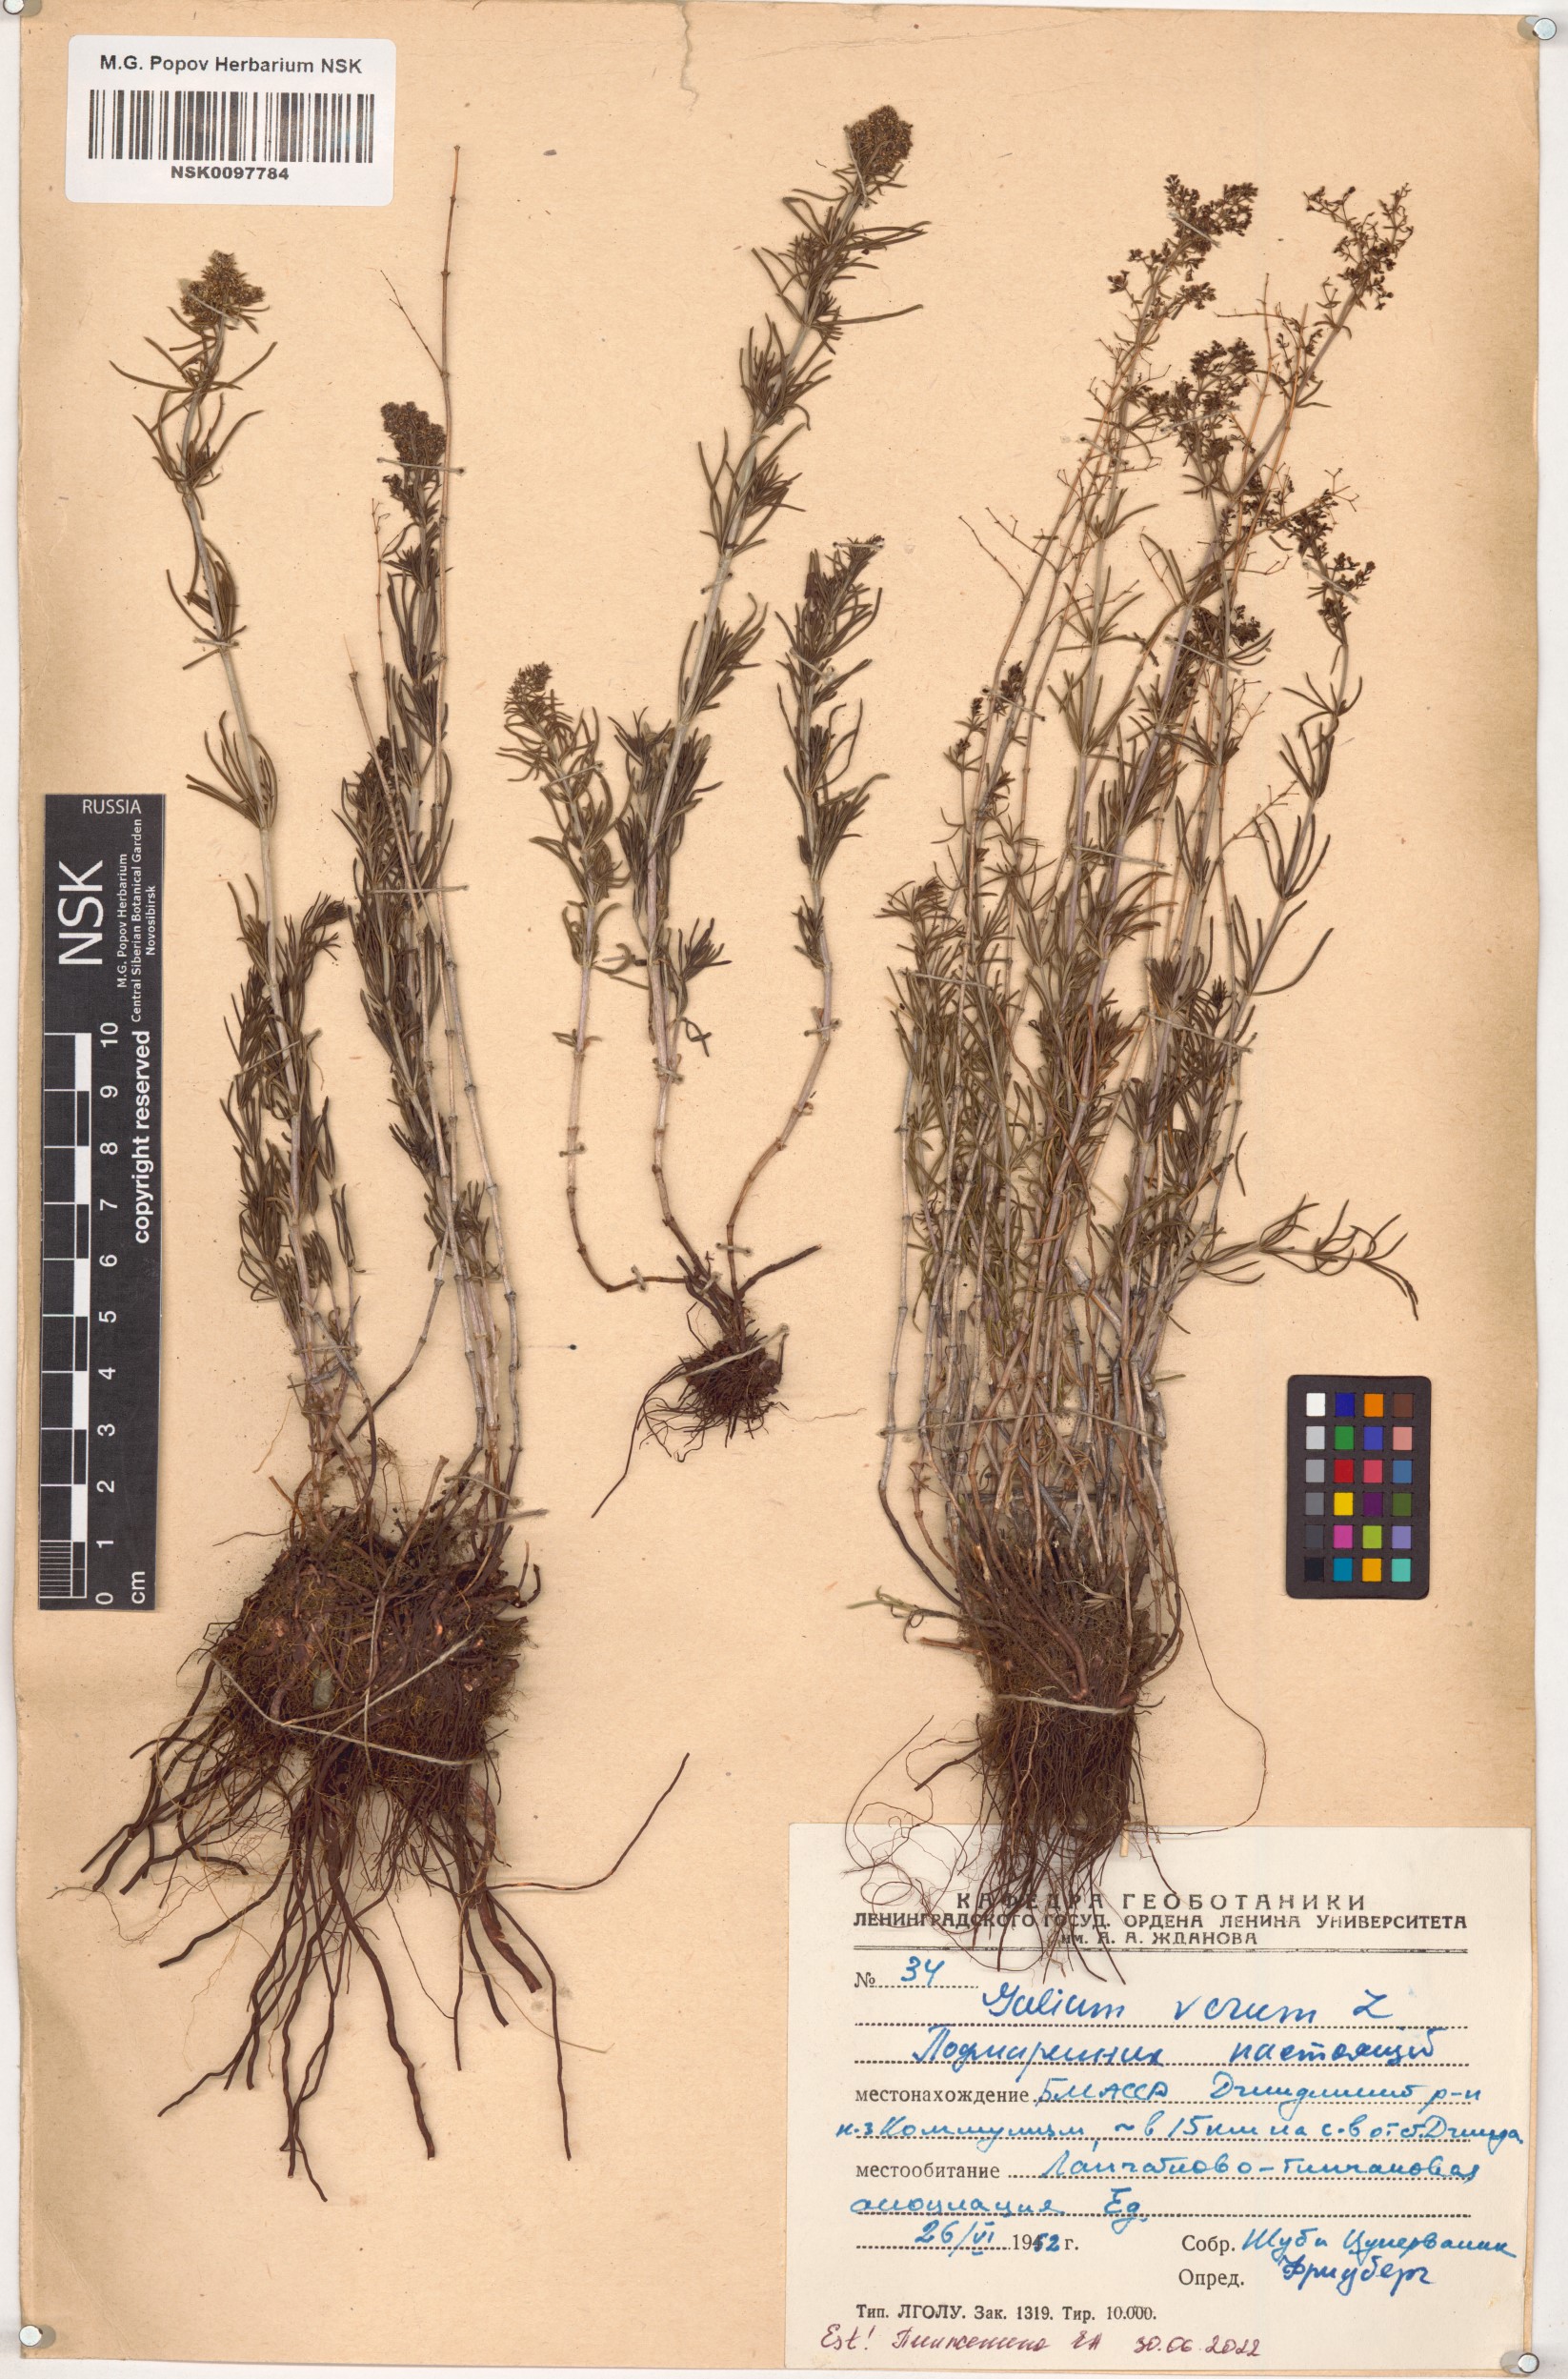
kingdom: Plantae
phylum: Tracheophyta
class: Magnoliopsida
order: Gentianales
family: Rubiaceae
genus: Galium
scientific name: Galium verum
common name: Lady's bedstraw
